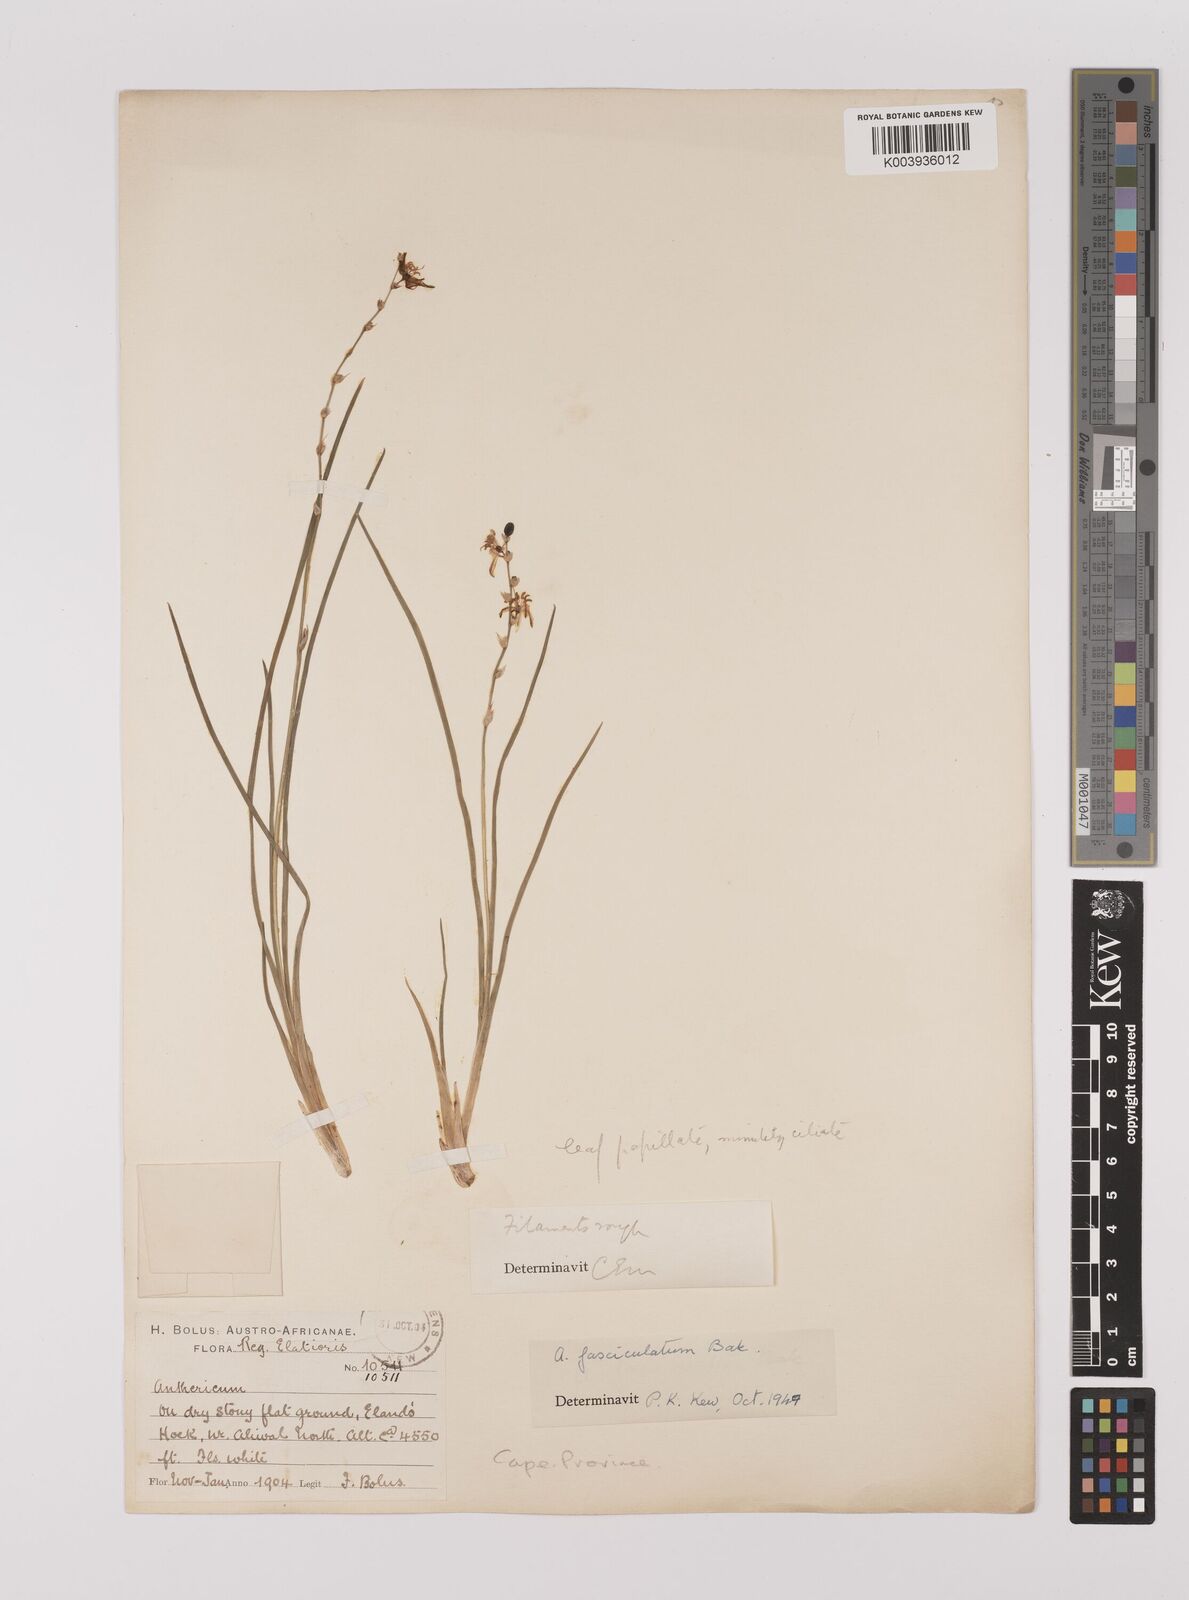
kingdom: Plantae
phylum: Tracheophyta
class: Liliopsida
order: Asparagales
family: Asparagaceae
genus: Chlorophytum
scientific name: Chlorophytum cooperi
